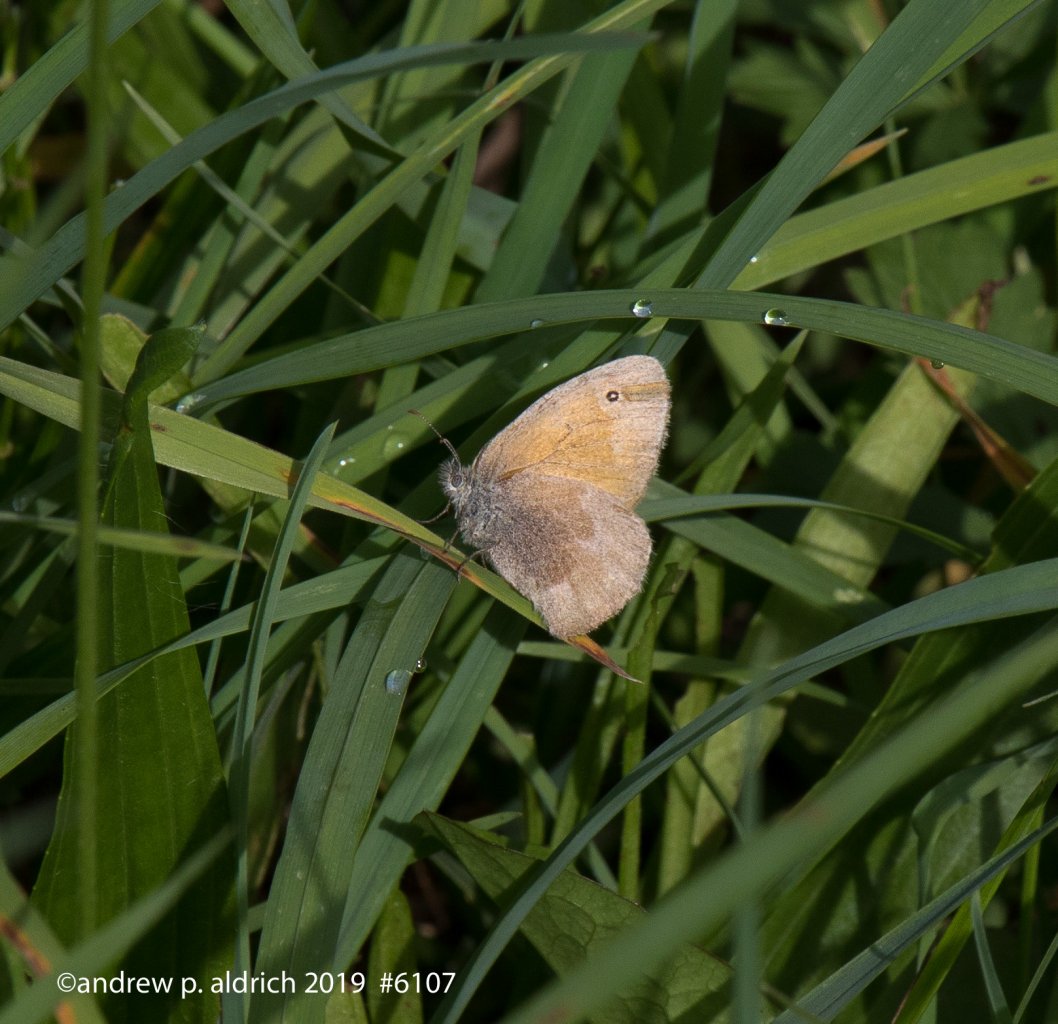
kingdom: Animalia
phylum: Arthropoda
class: Insecta
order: Lepidoptera
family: Nymphalidae
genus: Coenonympha
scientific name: Coenonympha tullia
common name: Large Heath
